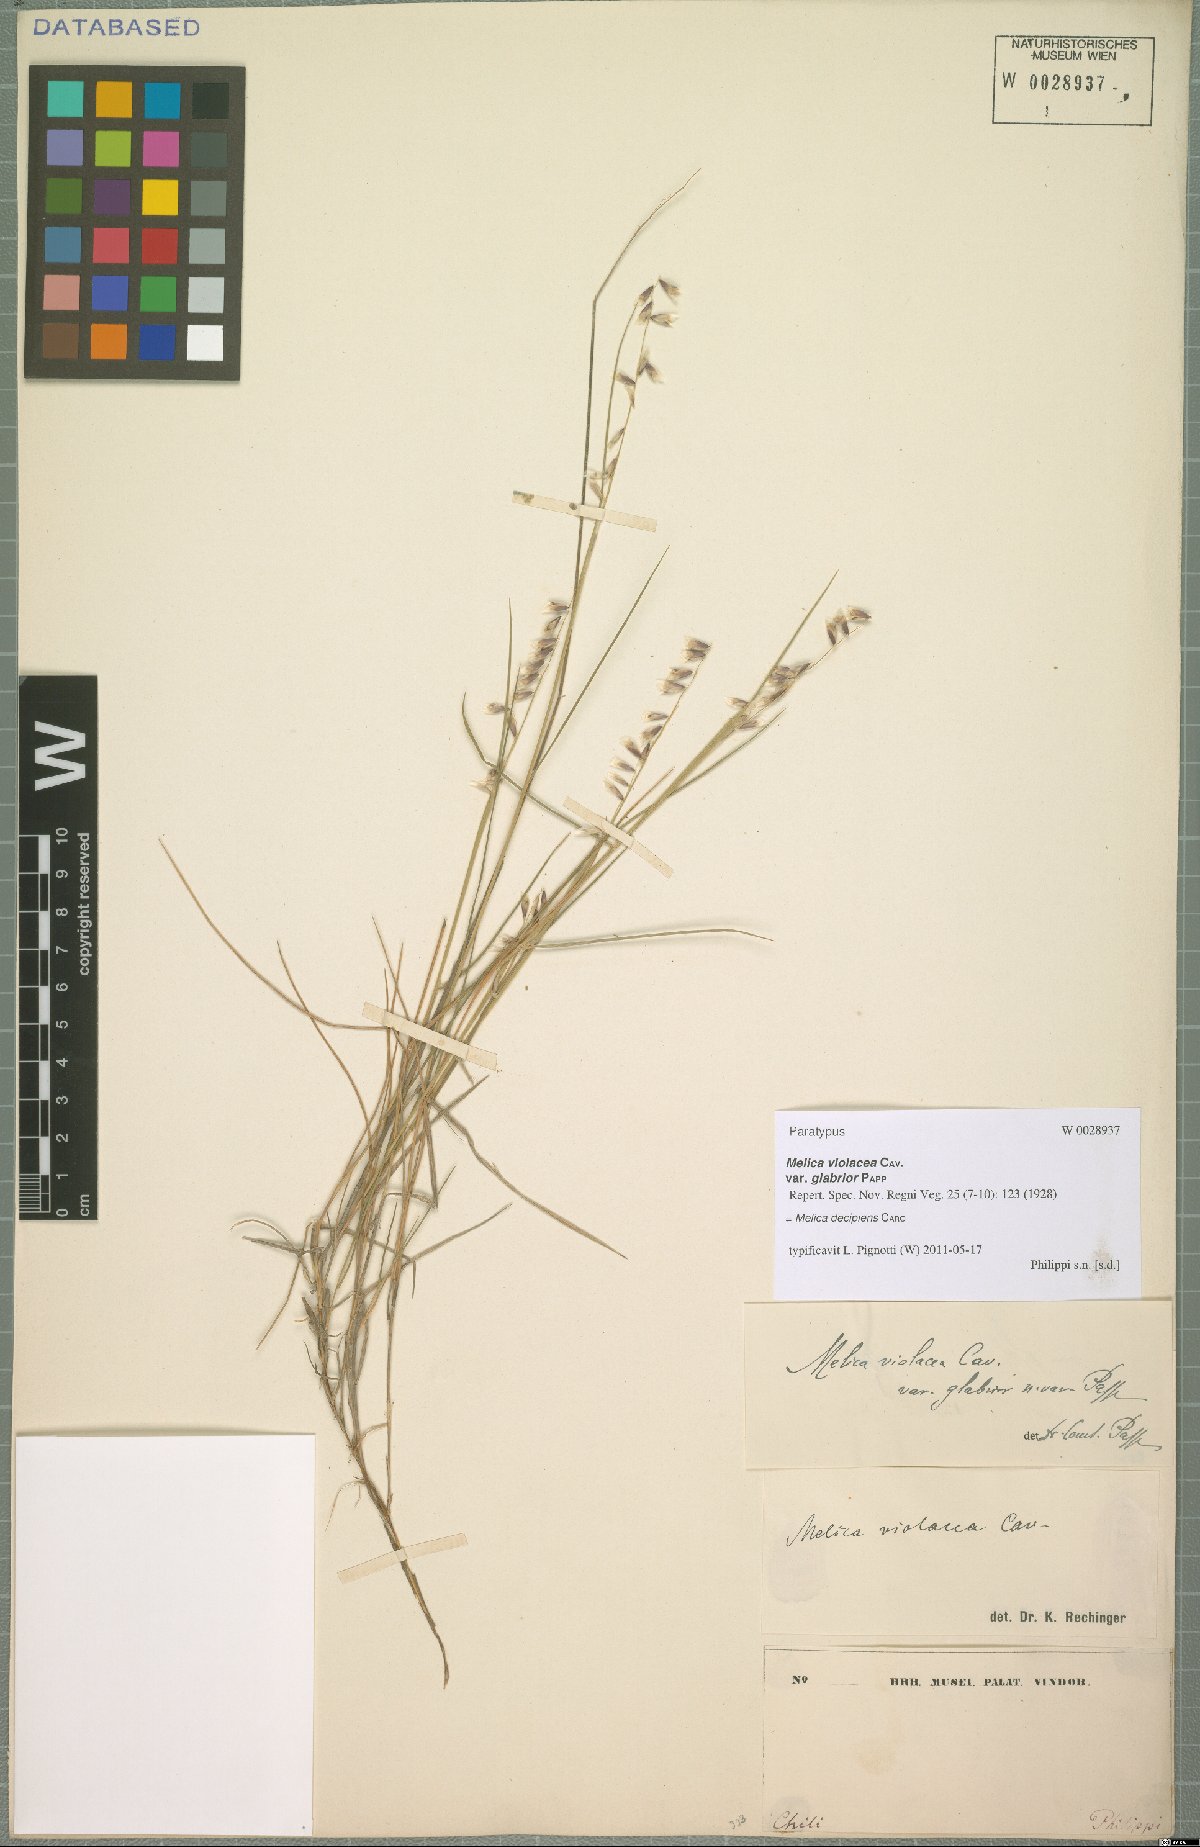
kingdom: Plantae
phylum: Tracheophyta
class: Liliopsida
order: Poales
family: Poaceae
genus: Melica
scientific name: Melica decipiens
